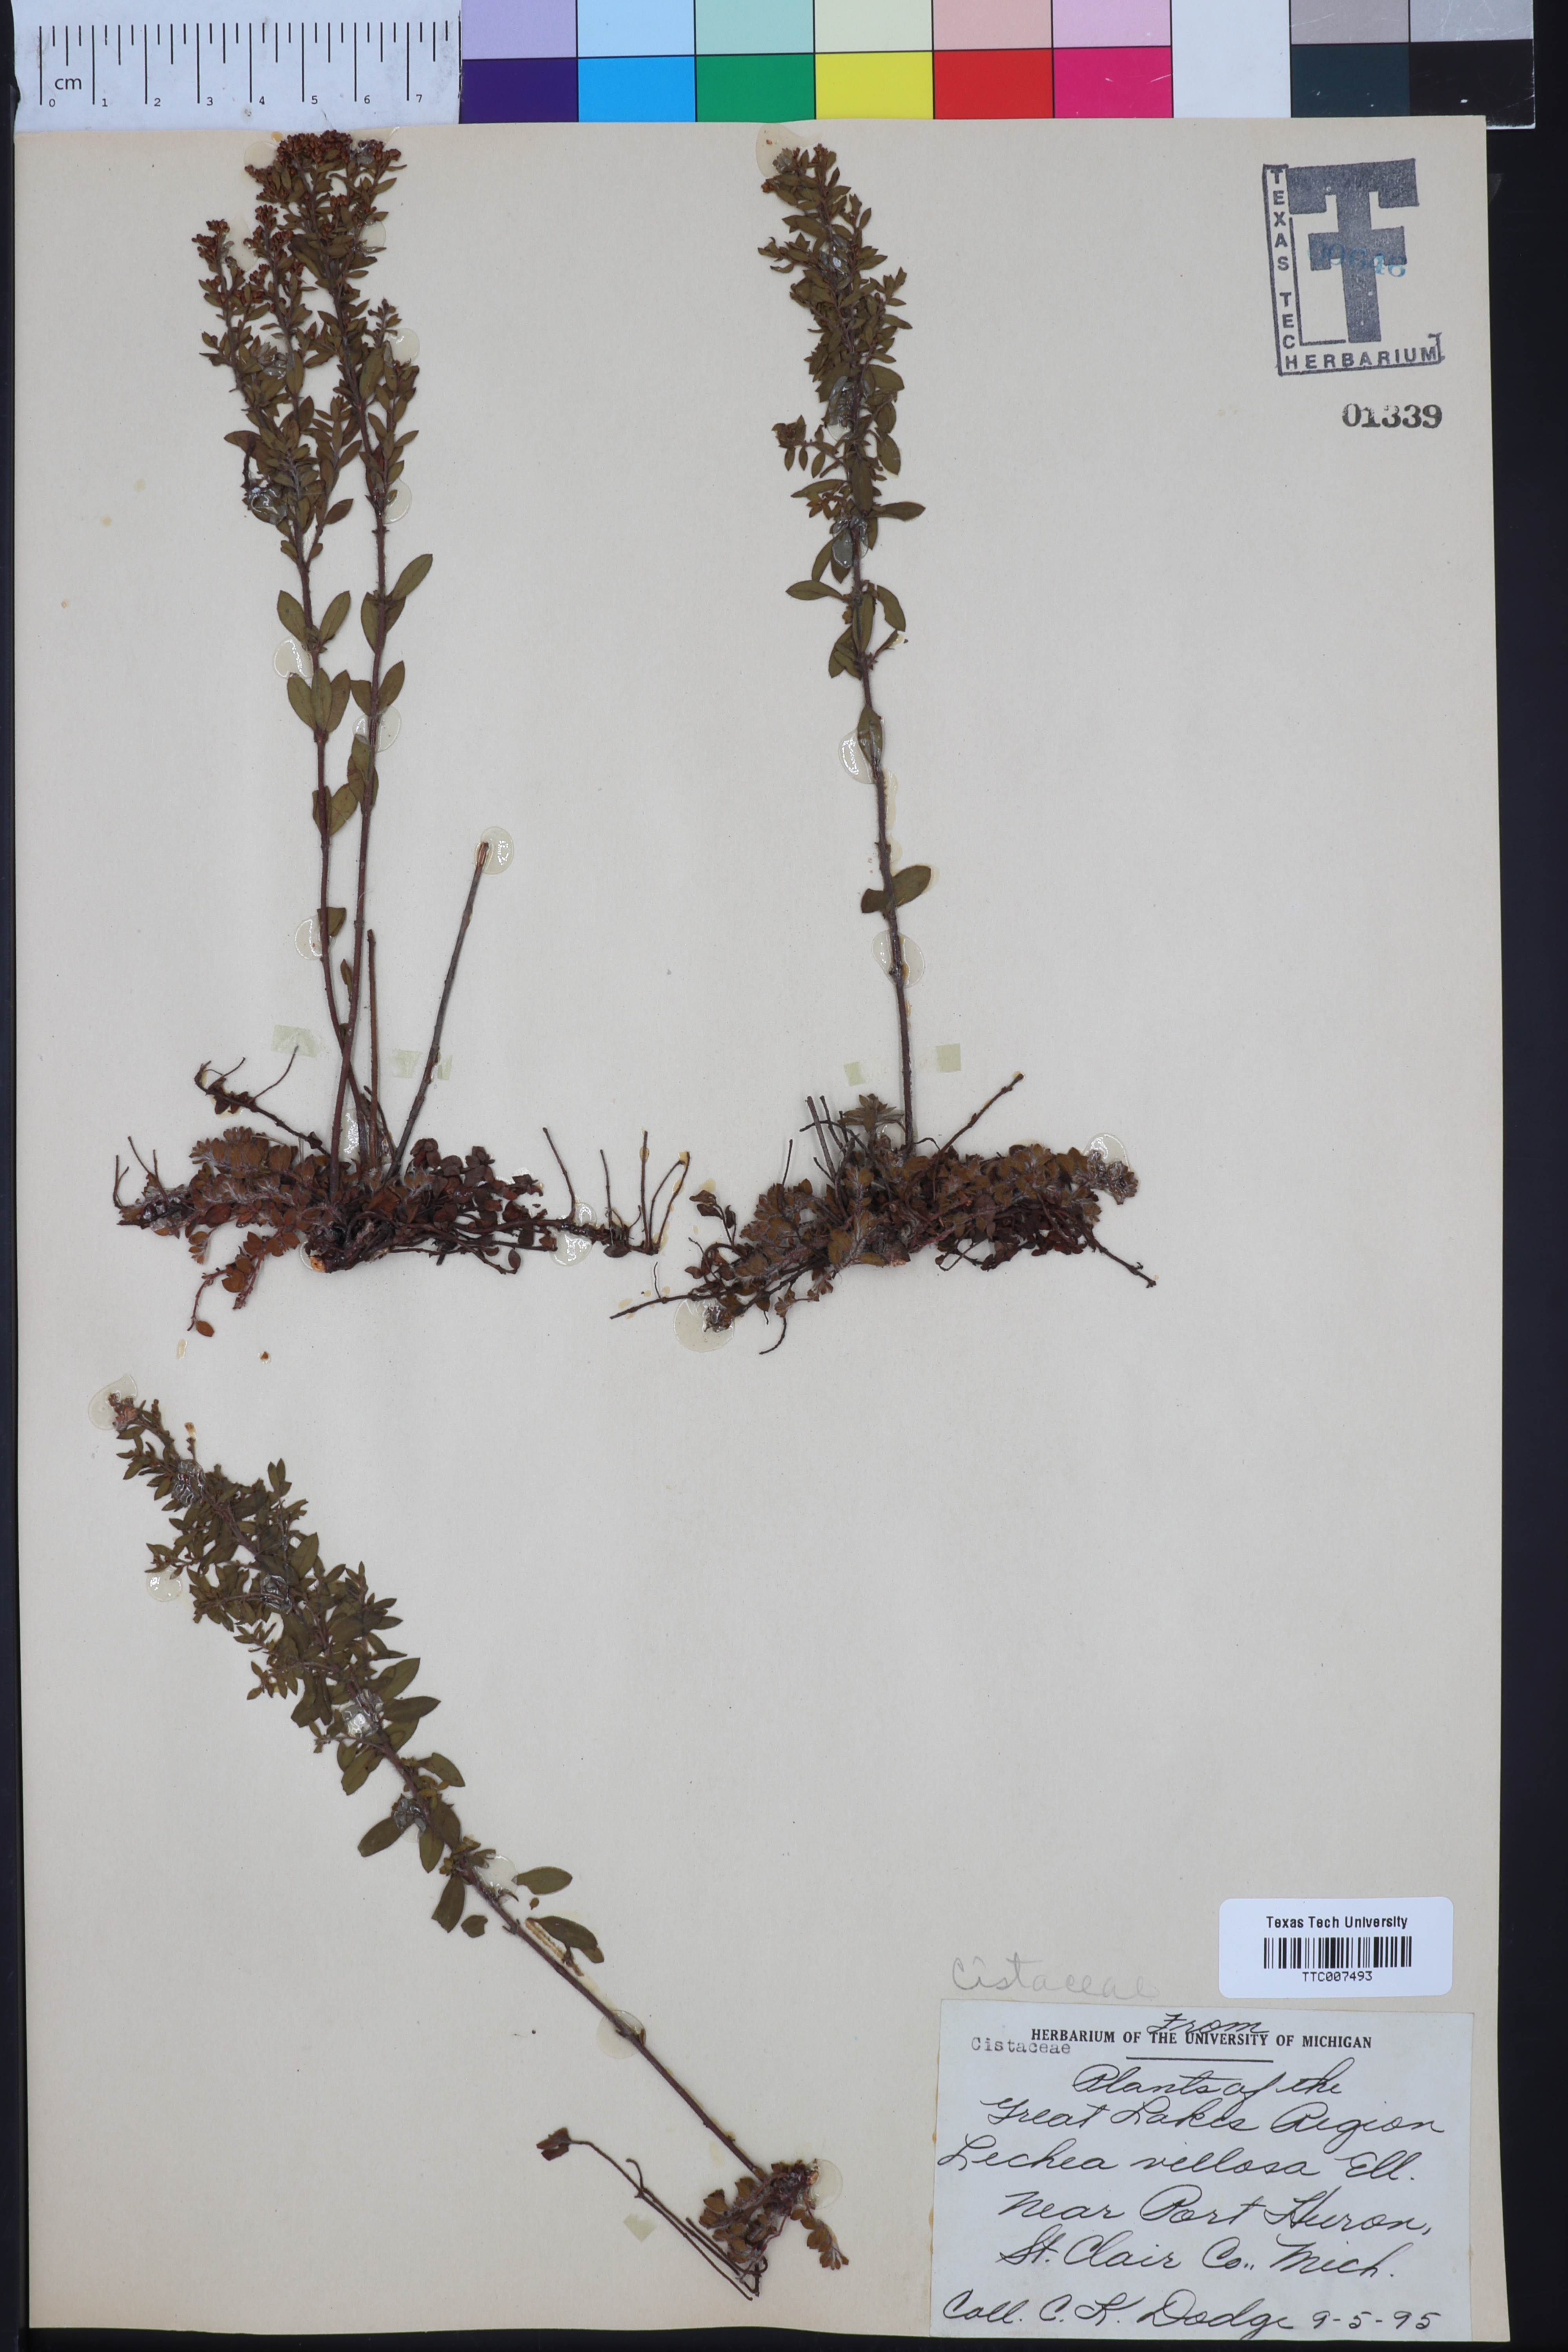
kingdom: Plantae
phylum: Tracheophyta
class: Magnoliopsida
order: Malvales
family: Cistaceae
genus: Lechea
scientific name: Lechea mucronata
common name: Hairy pinweed
